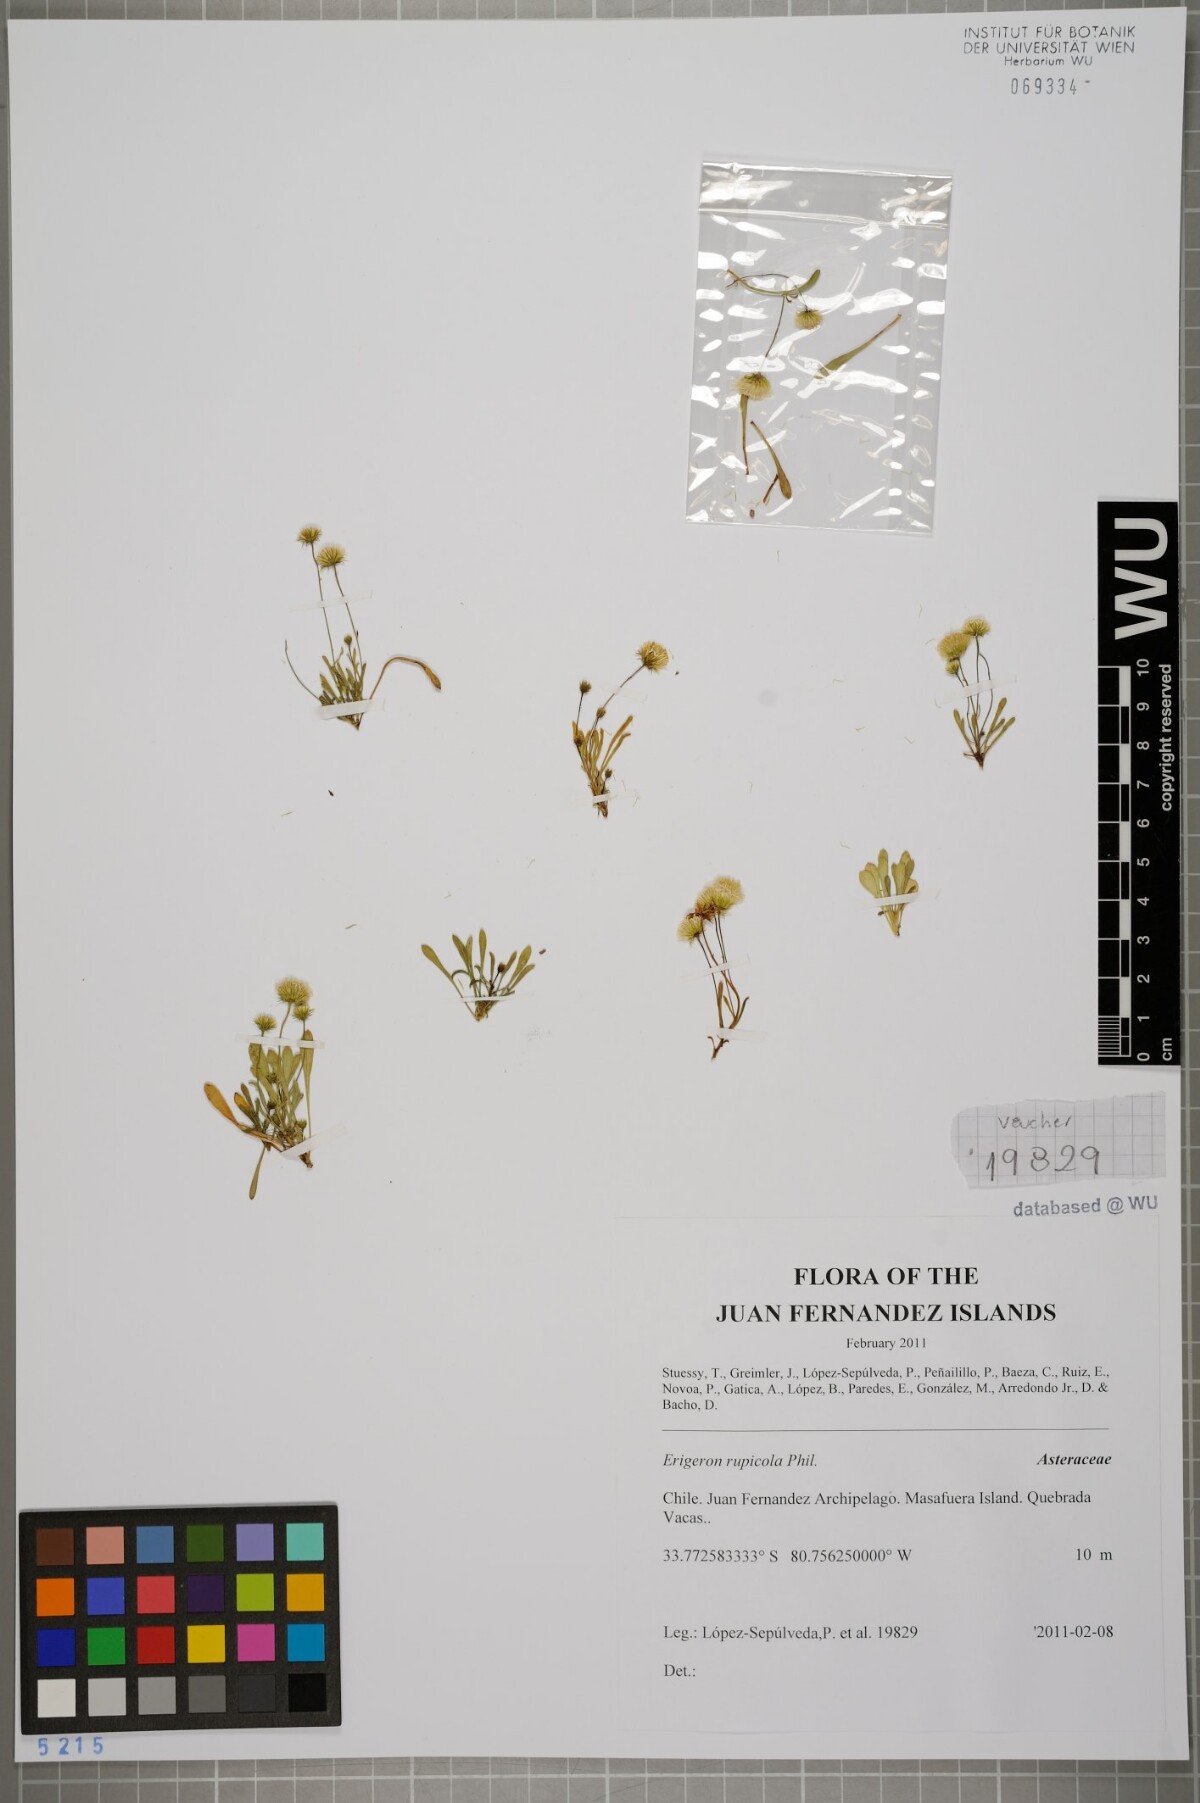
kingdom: Plantae
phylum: Tracheophyta
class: Magnoliopsida
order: Asterales
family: Asteraceae
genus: Erigeron
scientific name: Erigeron rupicola
